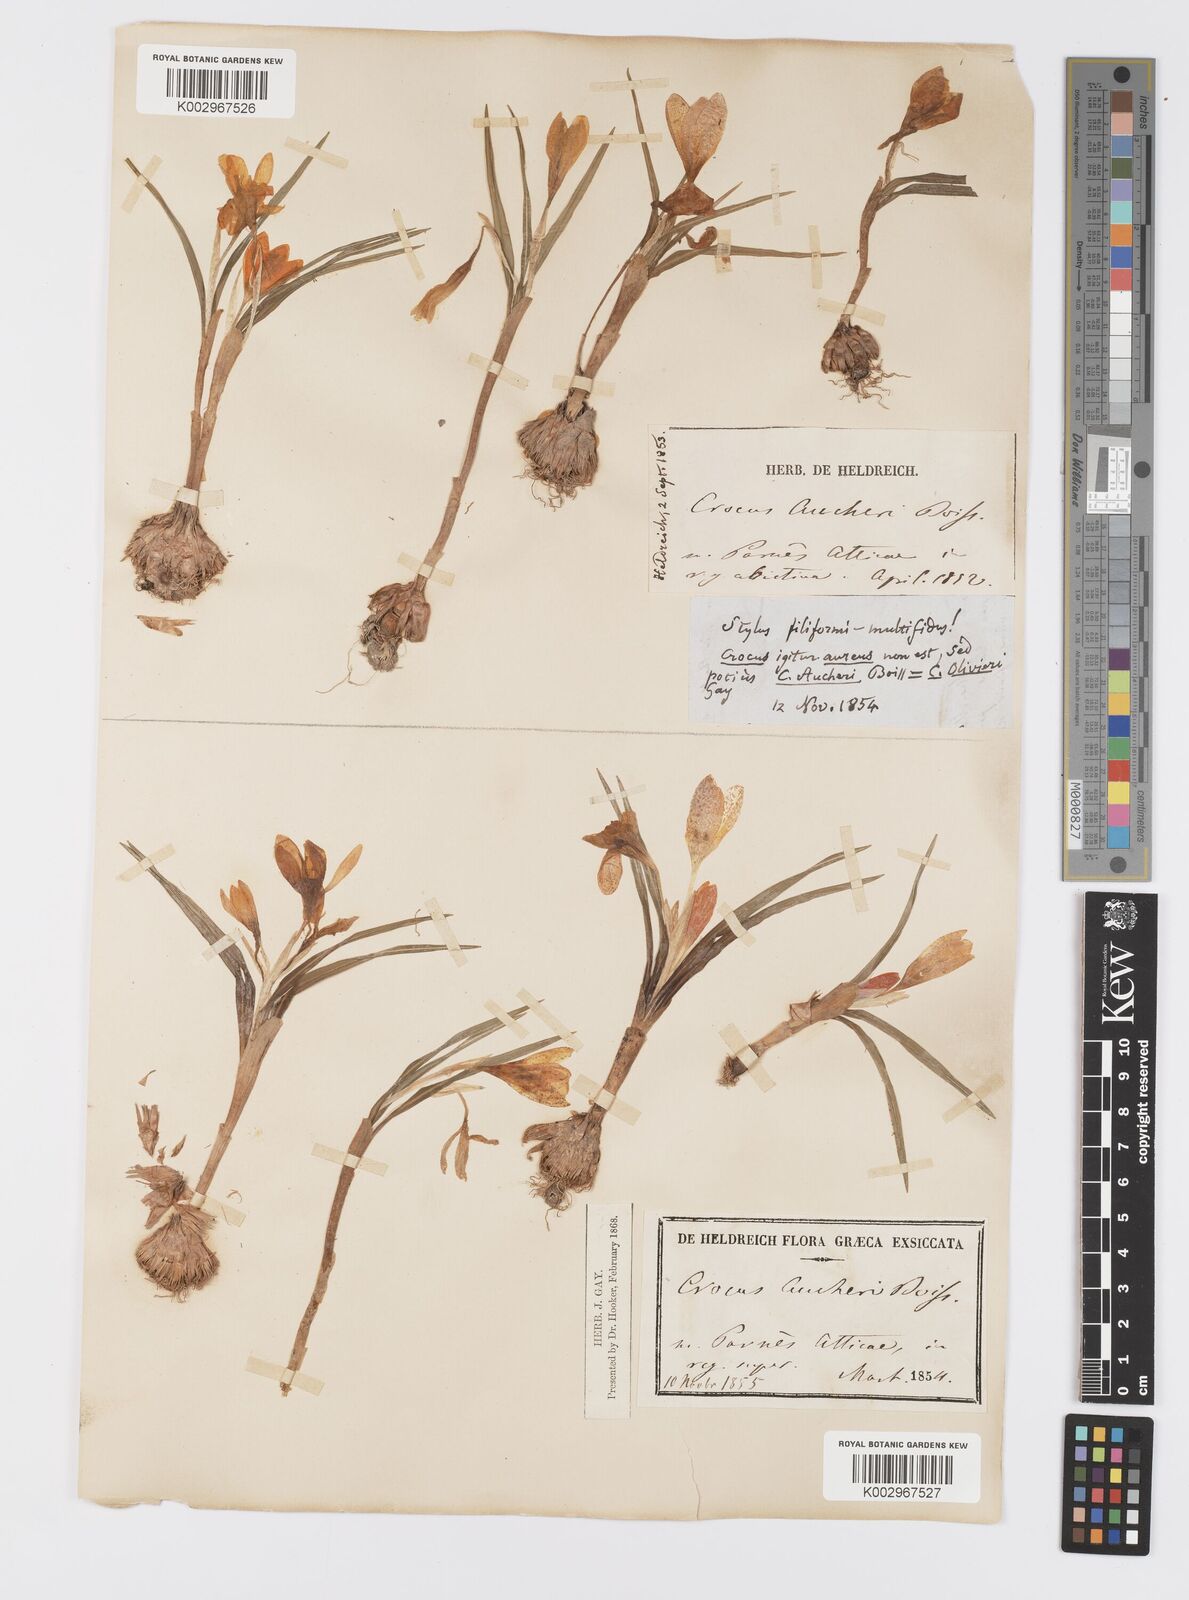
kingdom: Plantae
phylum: Tracheophyta
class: Liliopsida
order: Asparagales
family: Iridaceae
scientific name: Iridaceae
